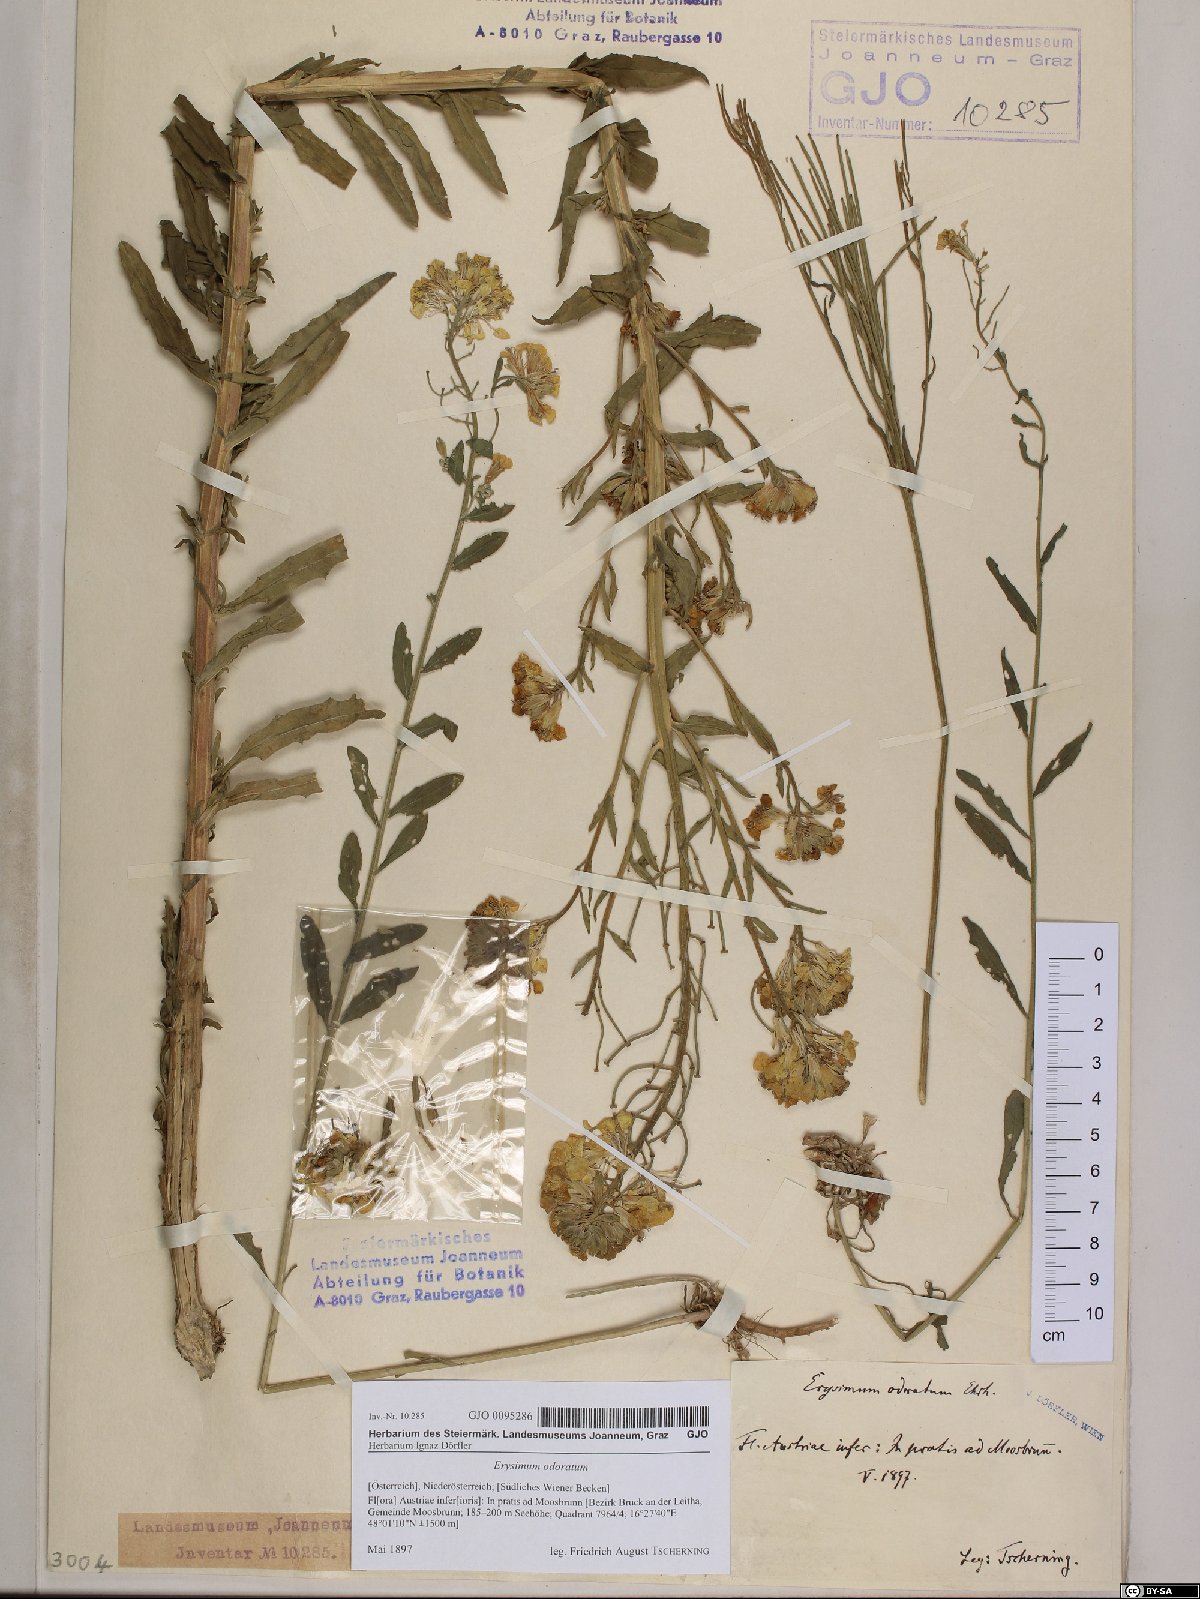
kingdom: Plantae
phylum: Tracheophyta
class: Magnoliopsida
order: Brassicales
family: Brassicaceae
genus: Erysimum
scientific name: Erysimum odoratum
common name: Smelly wallflower
